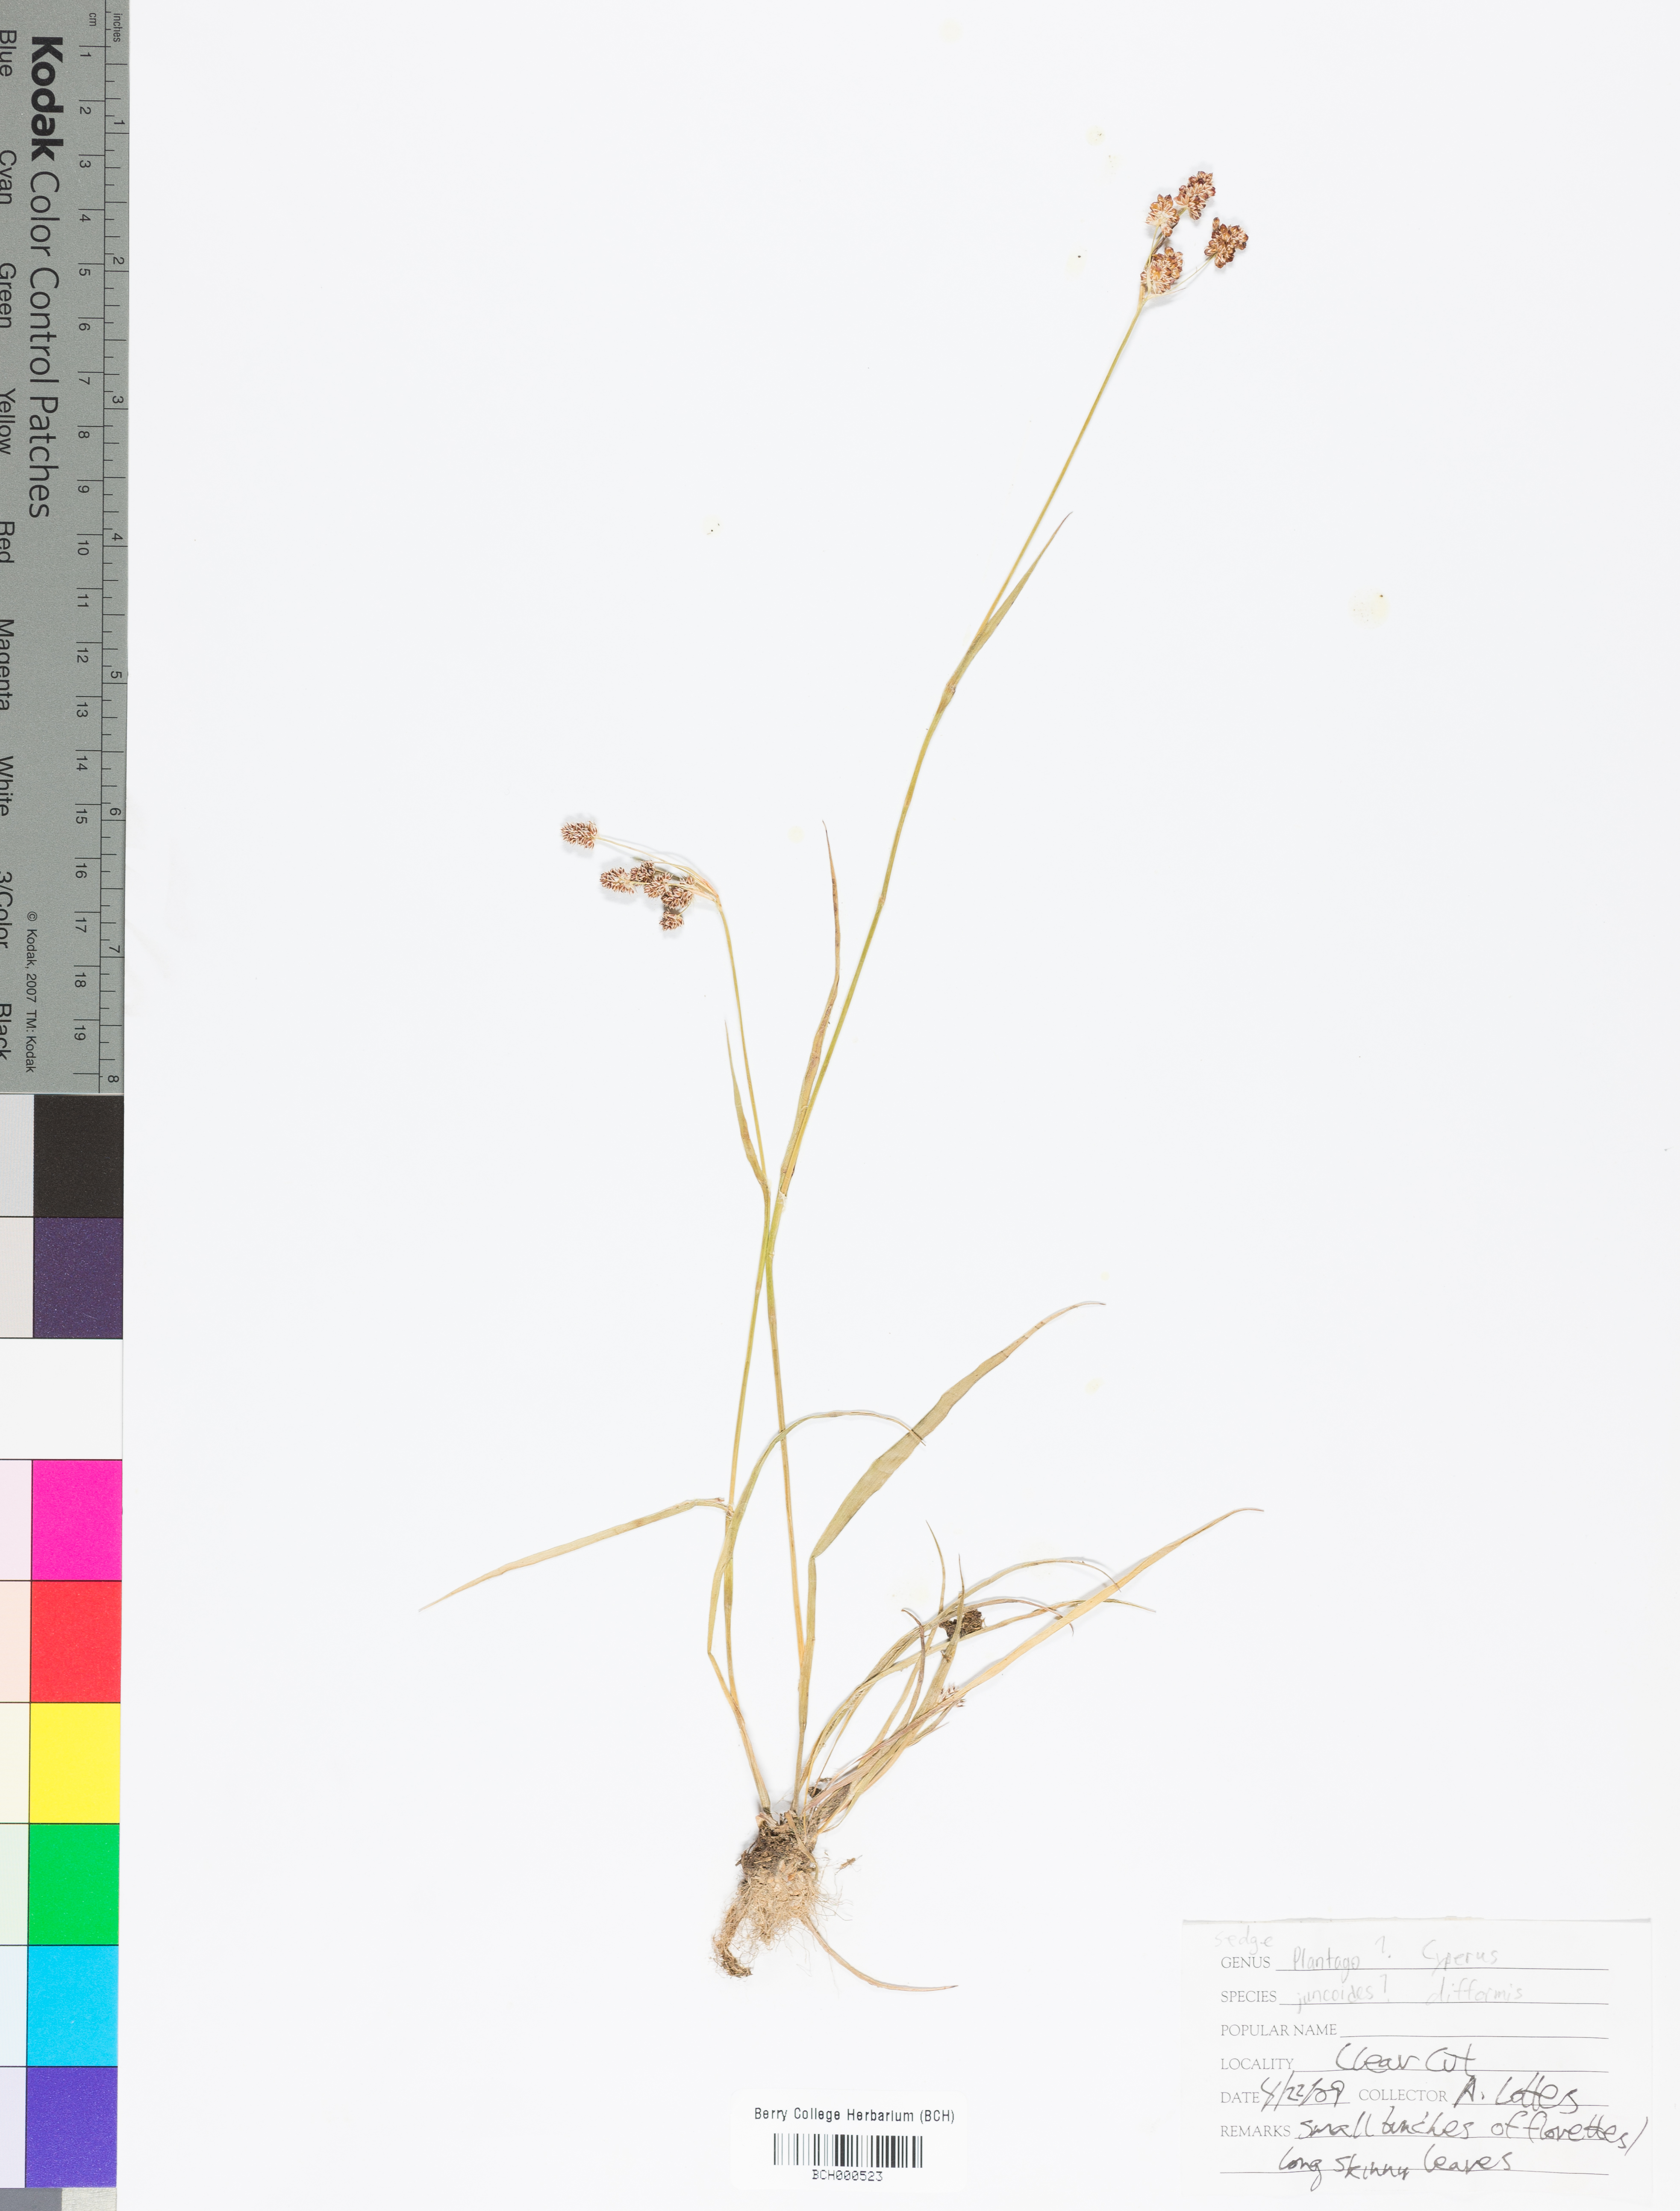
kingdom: Plantae
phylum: Tracheophyta
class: Liliopsida
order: Poales
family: Cyperaceae
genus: Cyperus
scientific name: Cyperus difformis
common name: Variable flatsedge
